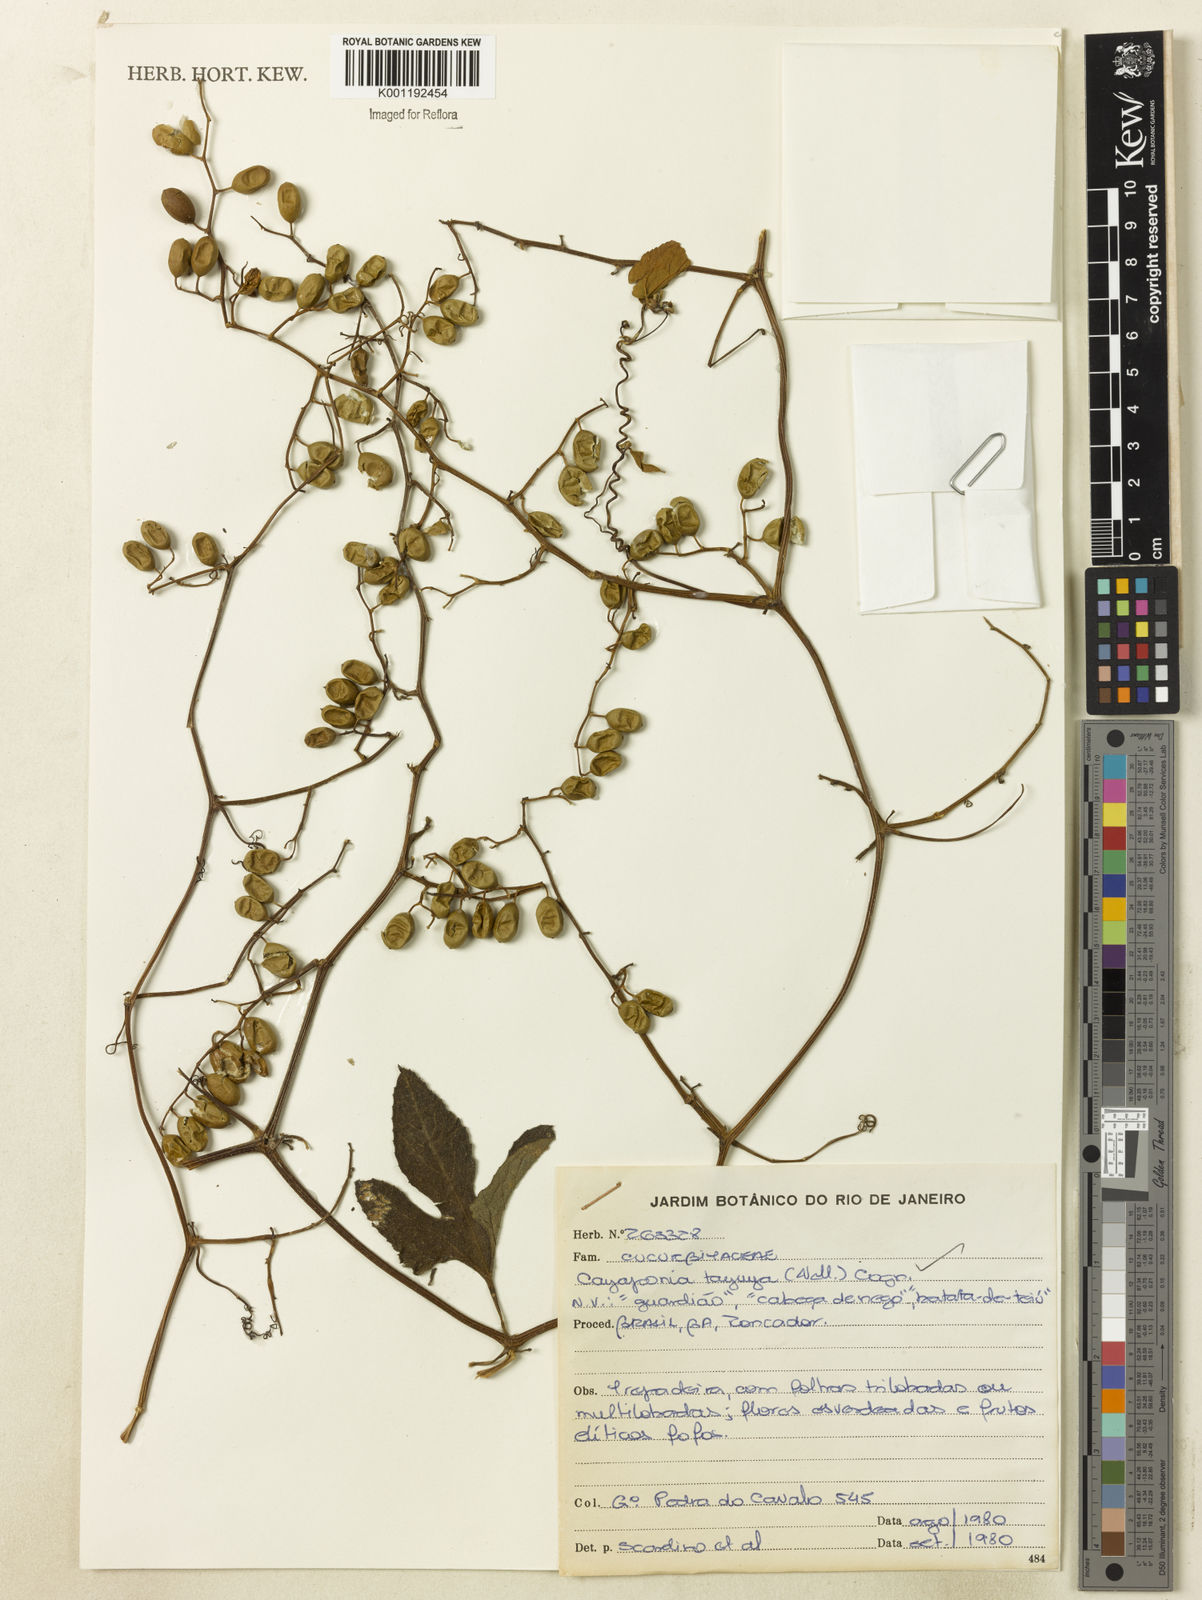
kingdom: Plantae
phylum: Tracheophyta
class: Magnoliopsida
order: Cucurbitales
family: Cucurbitaceae
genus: Cayaponia
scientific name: Cayaponia tayuya
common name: Tayuya
